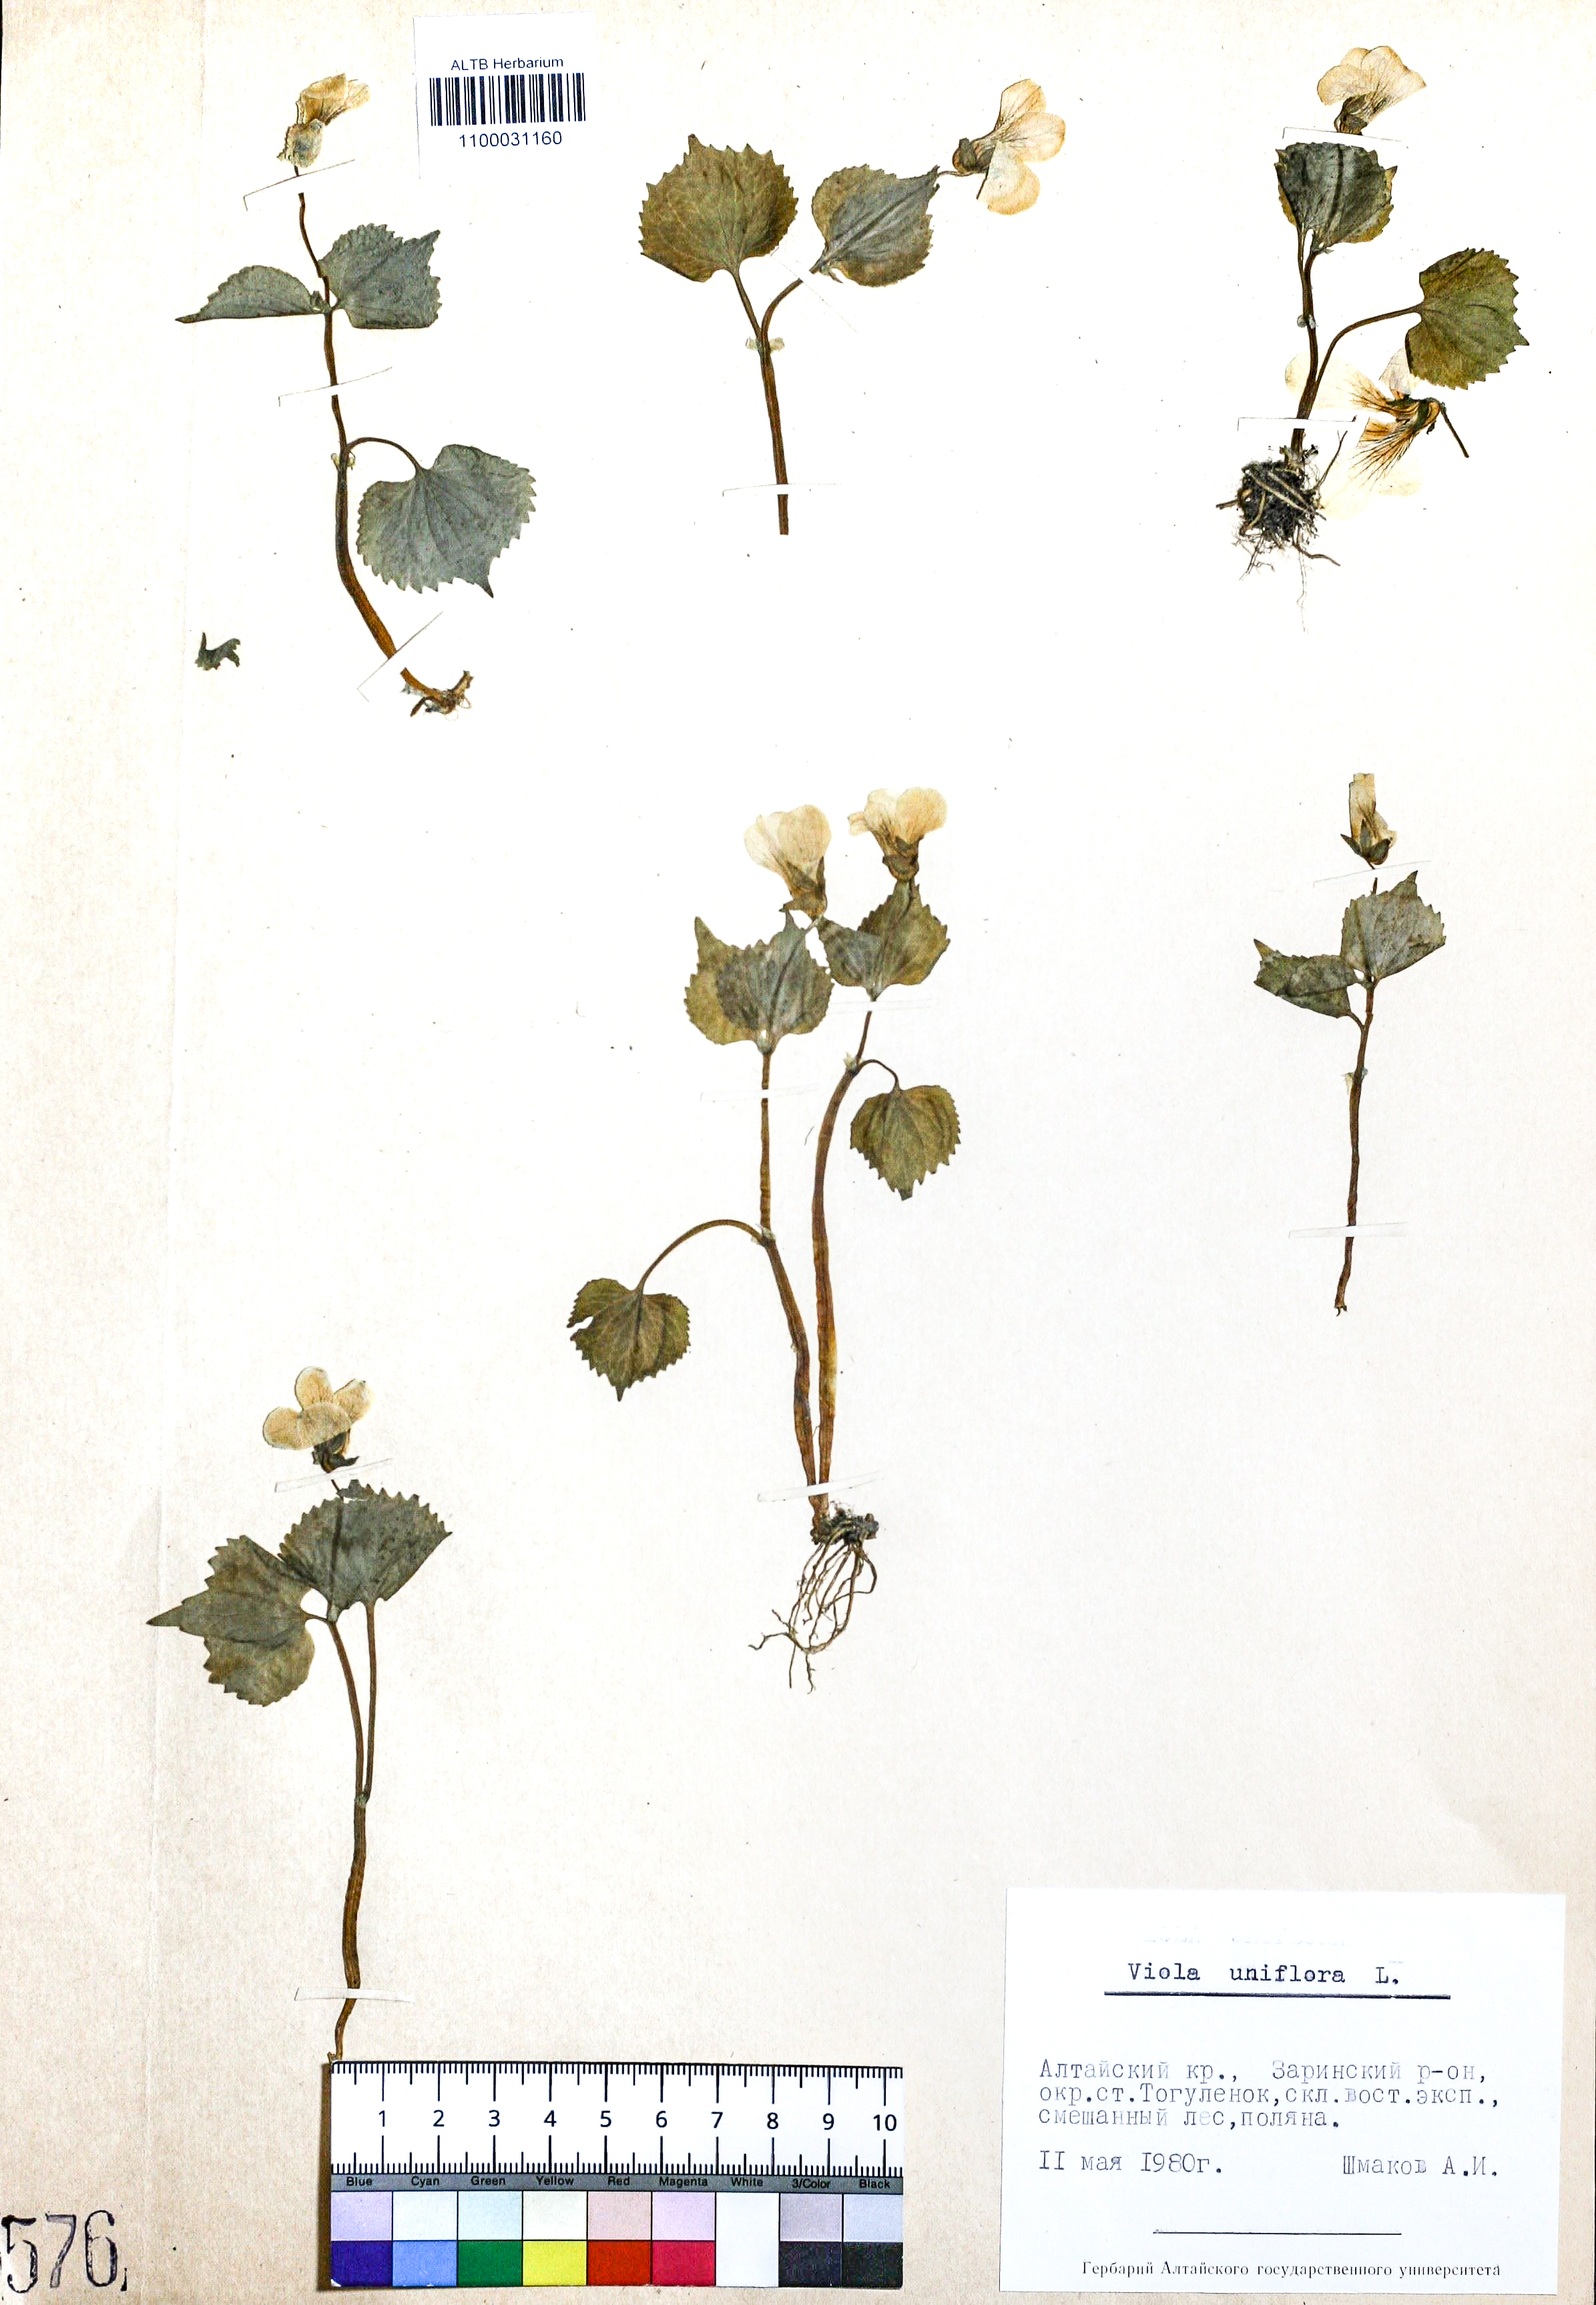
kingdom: Plantae
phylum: Tracheophyta
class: Magnoliopsida
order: Malpighiales
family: Violaceae
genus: Viola
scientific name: Viola uniflora
